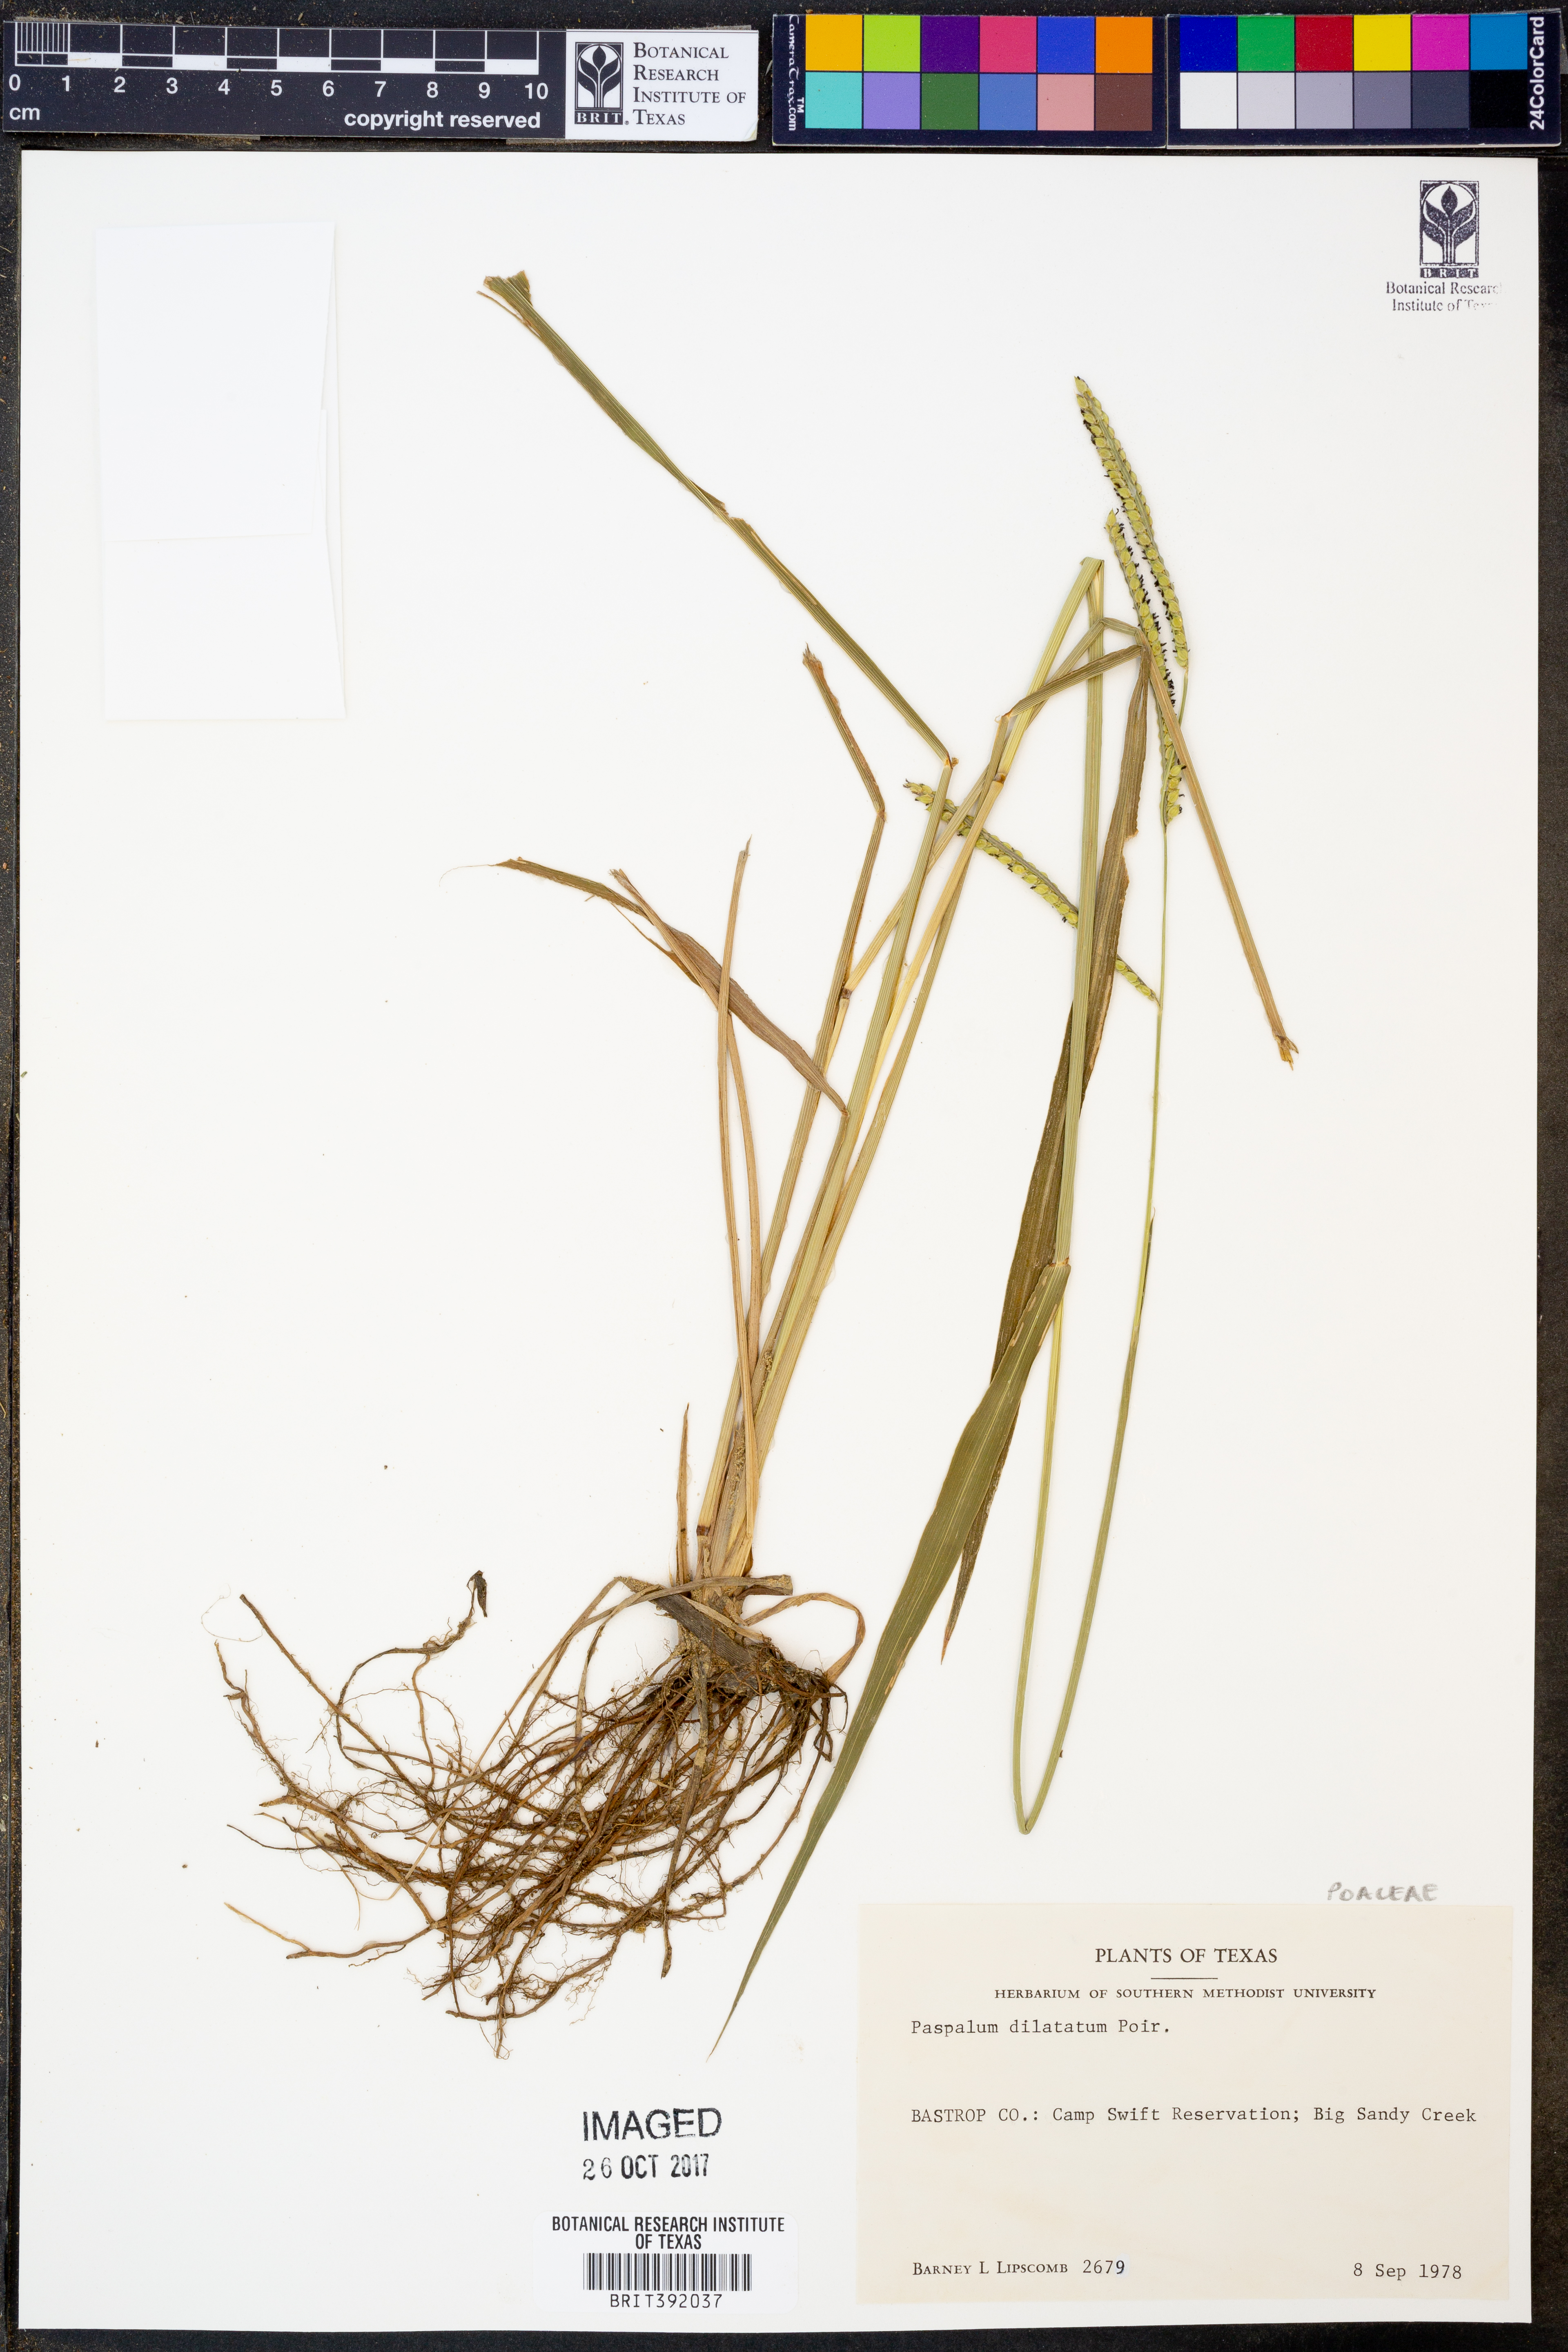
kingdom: Plantae
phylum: Tracheophyta
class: Liliopsida
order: Poales
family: Poaceae
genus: Paspalum
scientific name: Paspalum dilatatum
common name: Dallisgrass
